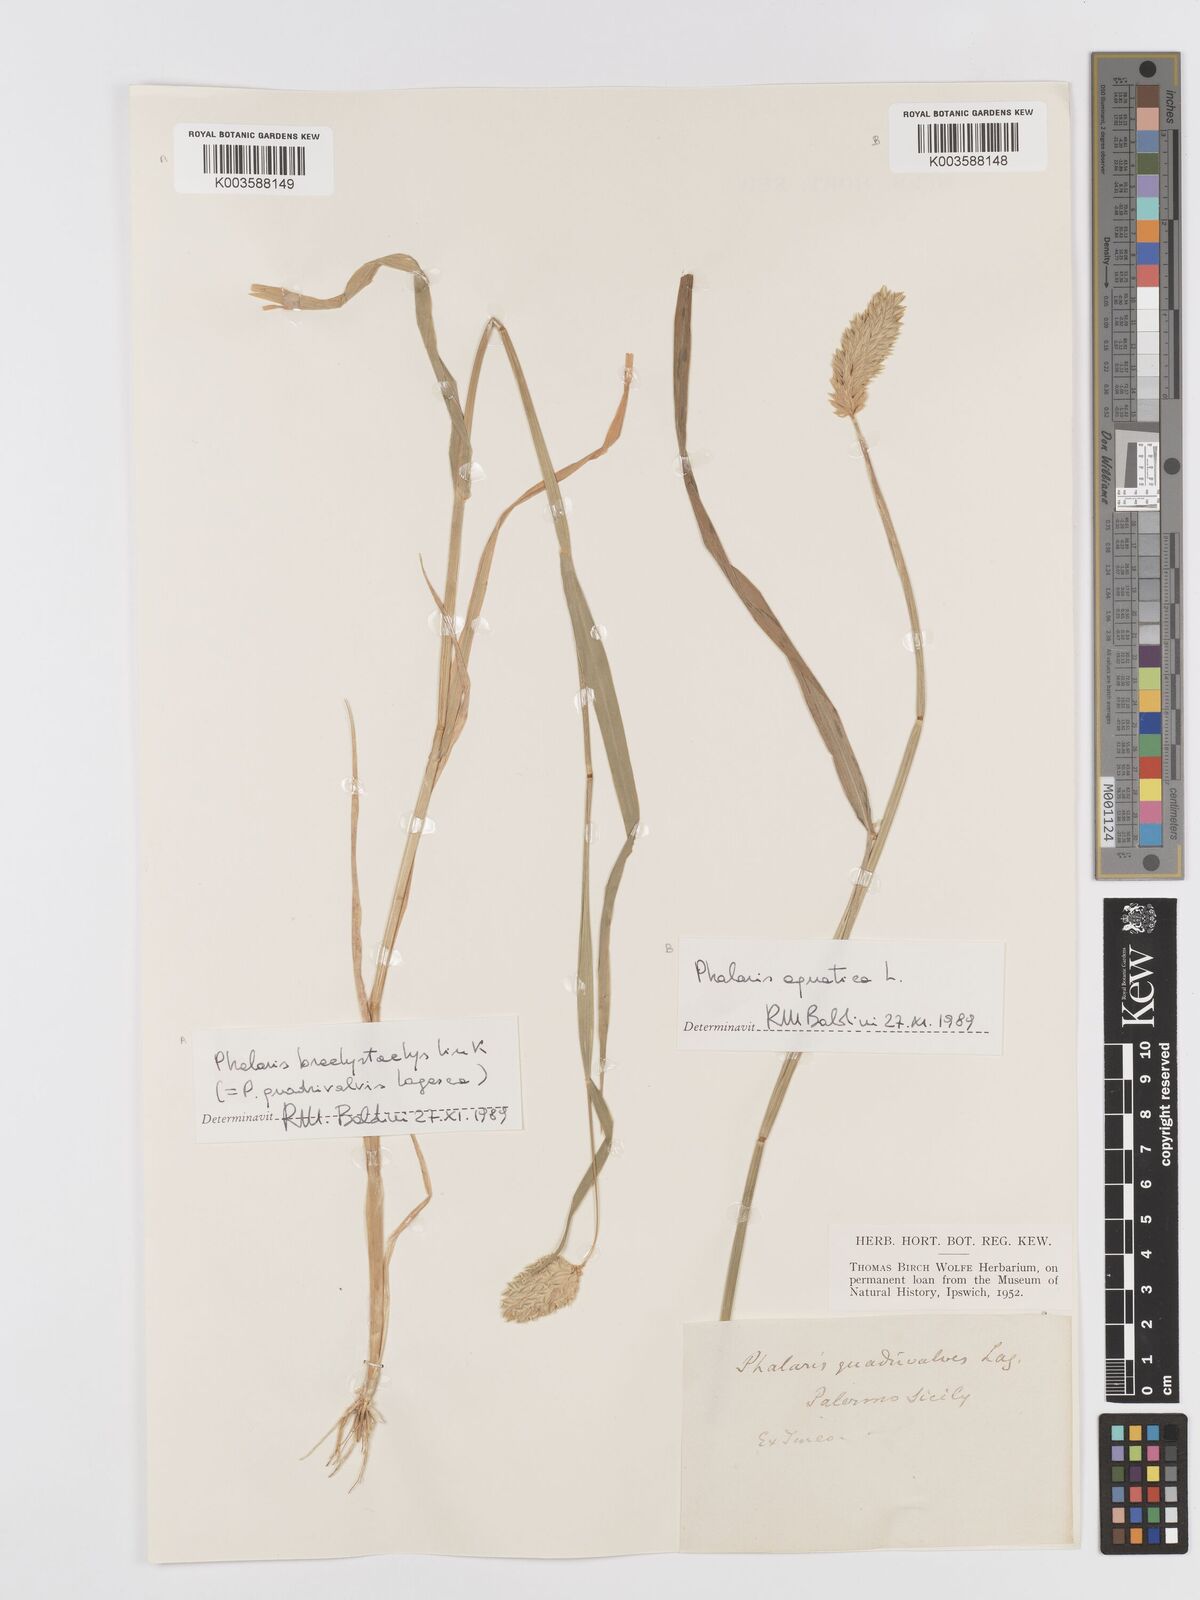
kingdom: Plantae
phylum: Tracheophyta
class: Liliopsida
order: Poales
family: Poaceae
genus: Phalaris
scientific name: Phalaris canariensis
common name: Annual canarygrass
